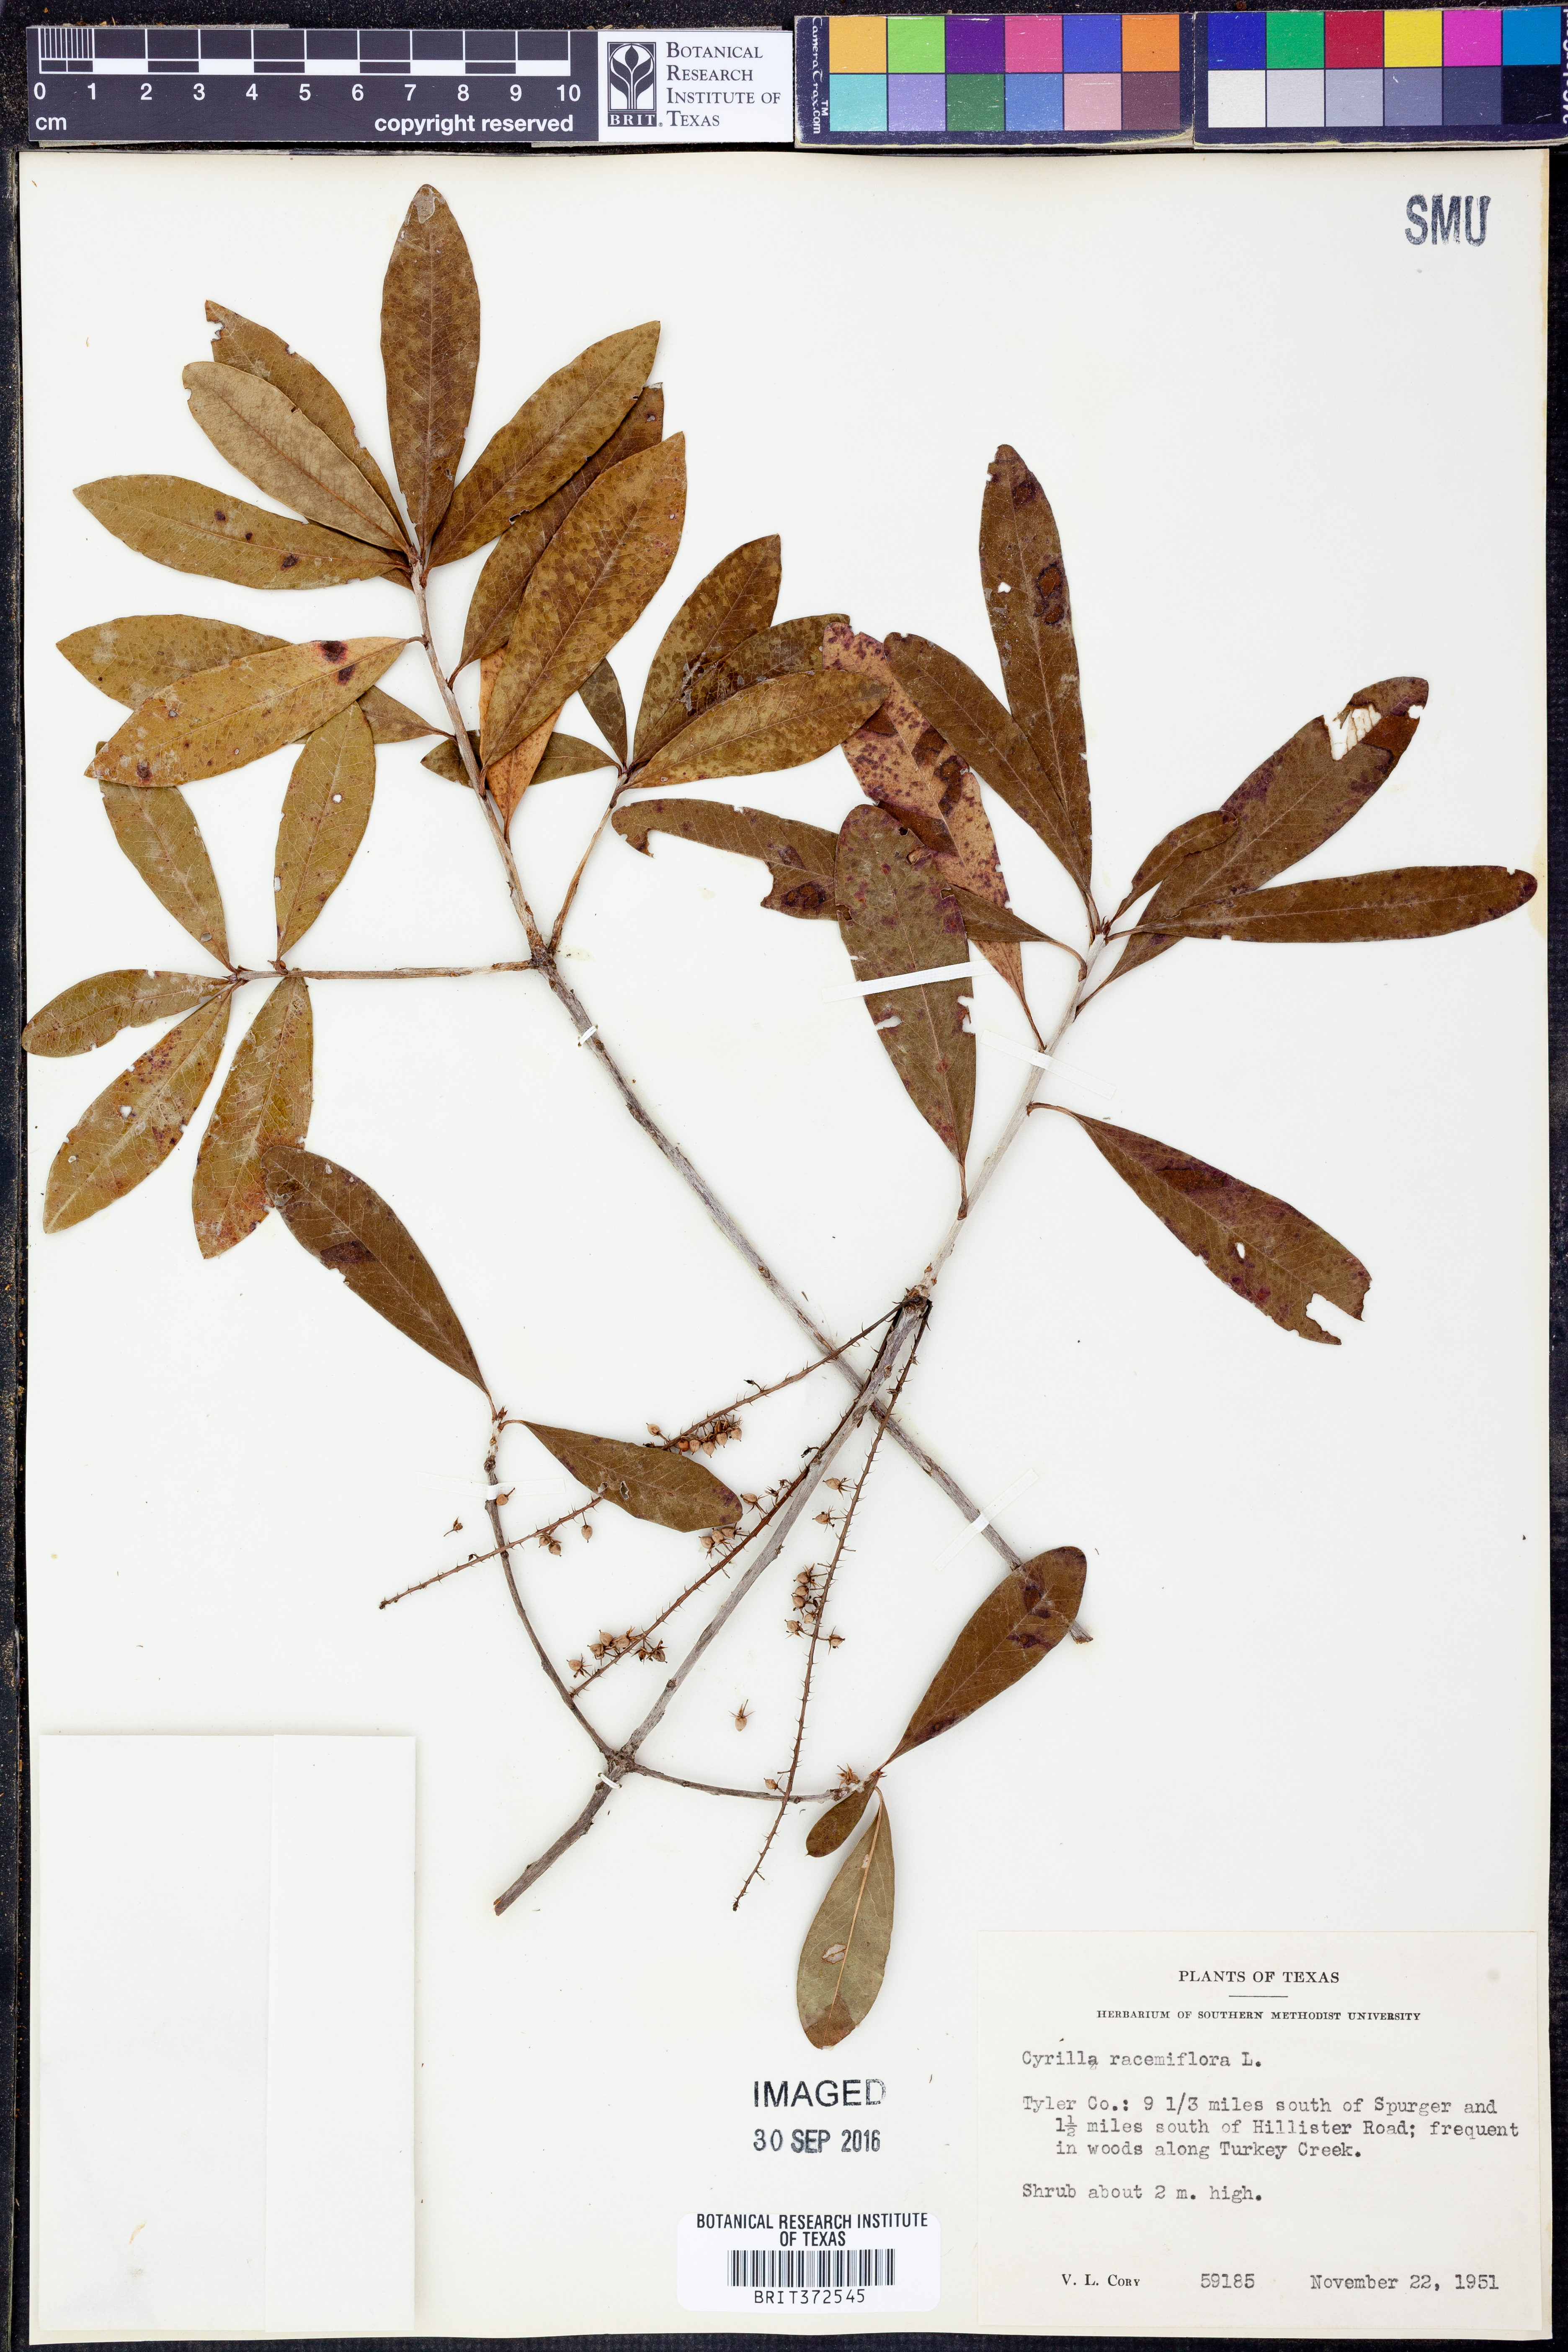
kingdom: Plantae
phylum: Tracheophyta
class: Magnoliopsida
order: Ericales
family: Cyrillaceae
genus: Cyrilla
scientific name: Cyrilla racemiflora
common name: Black titi
